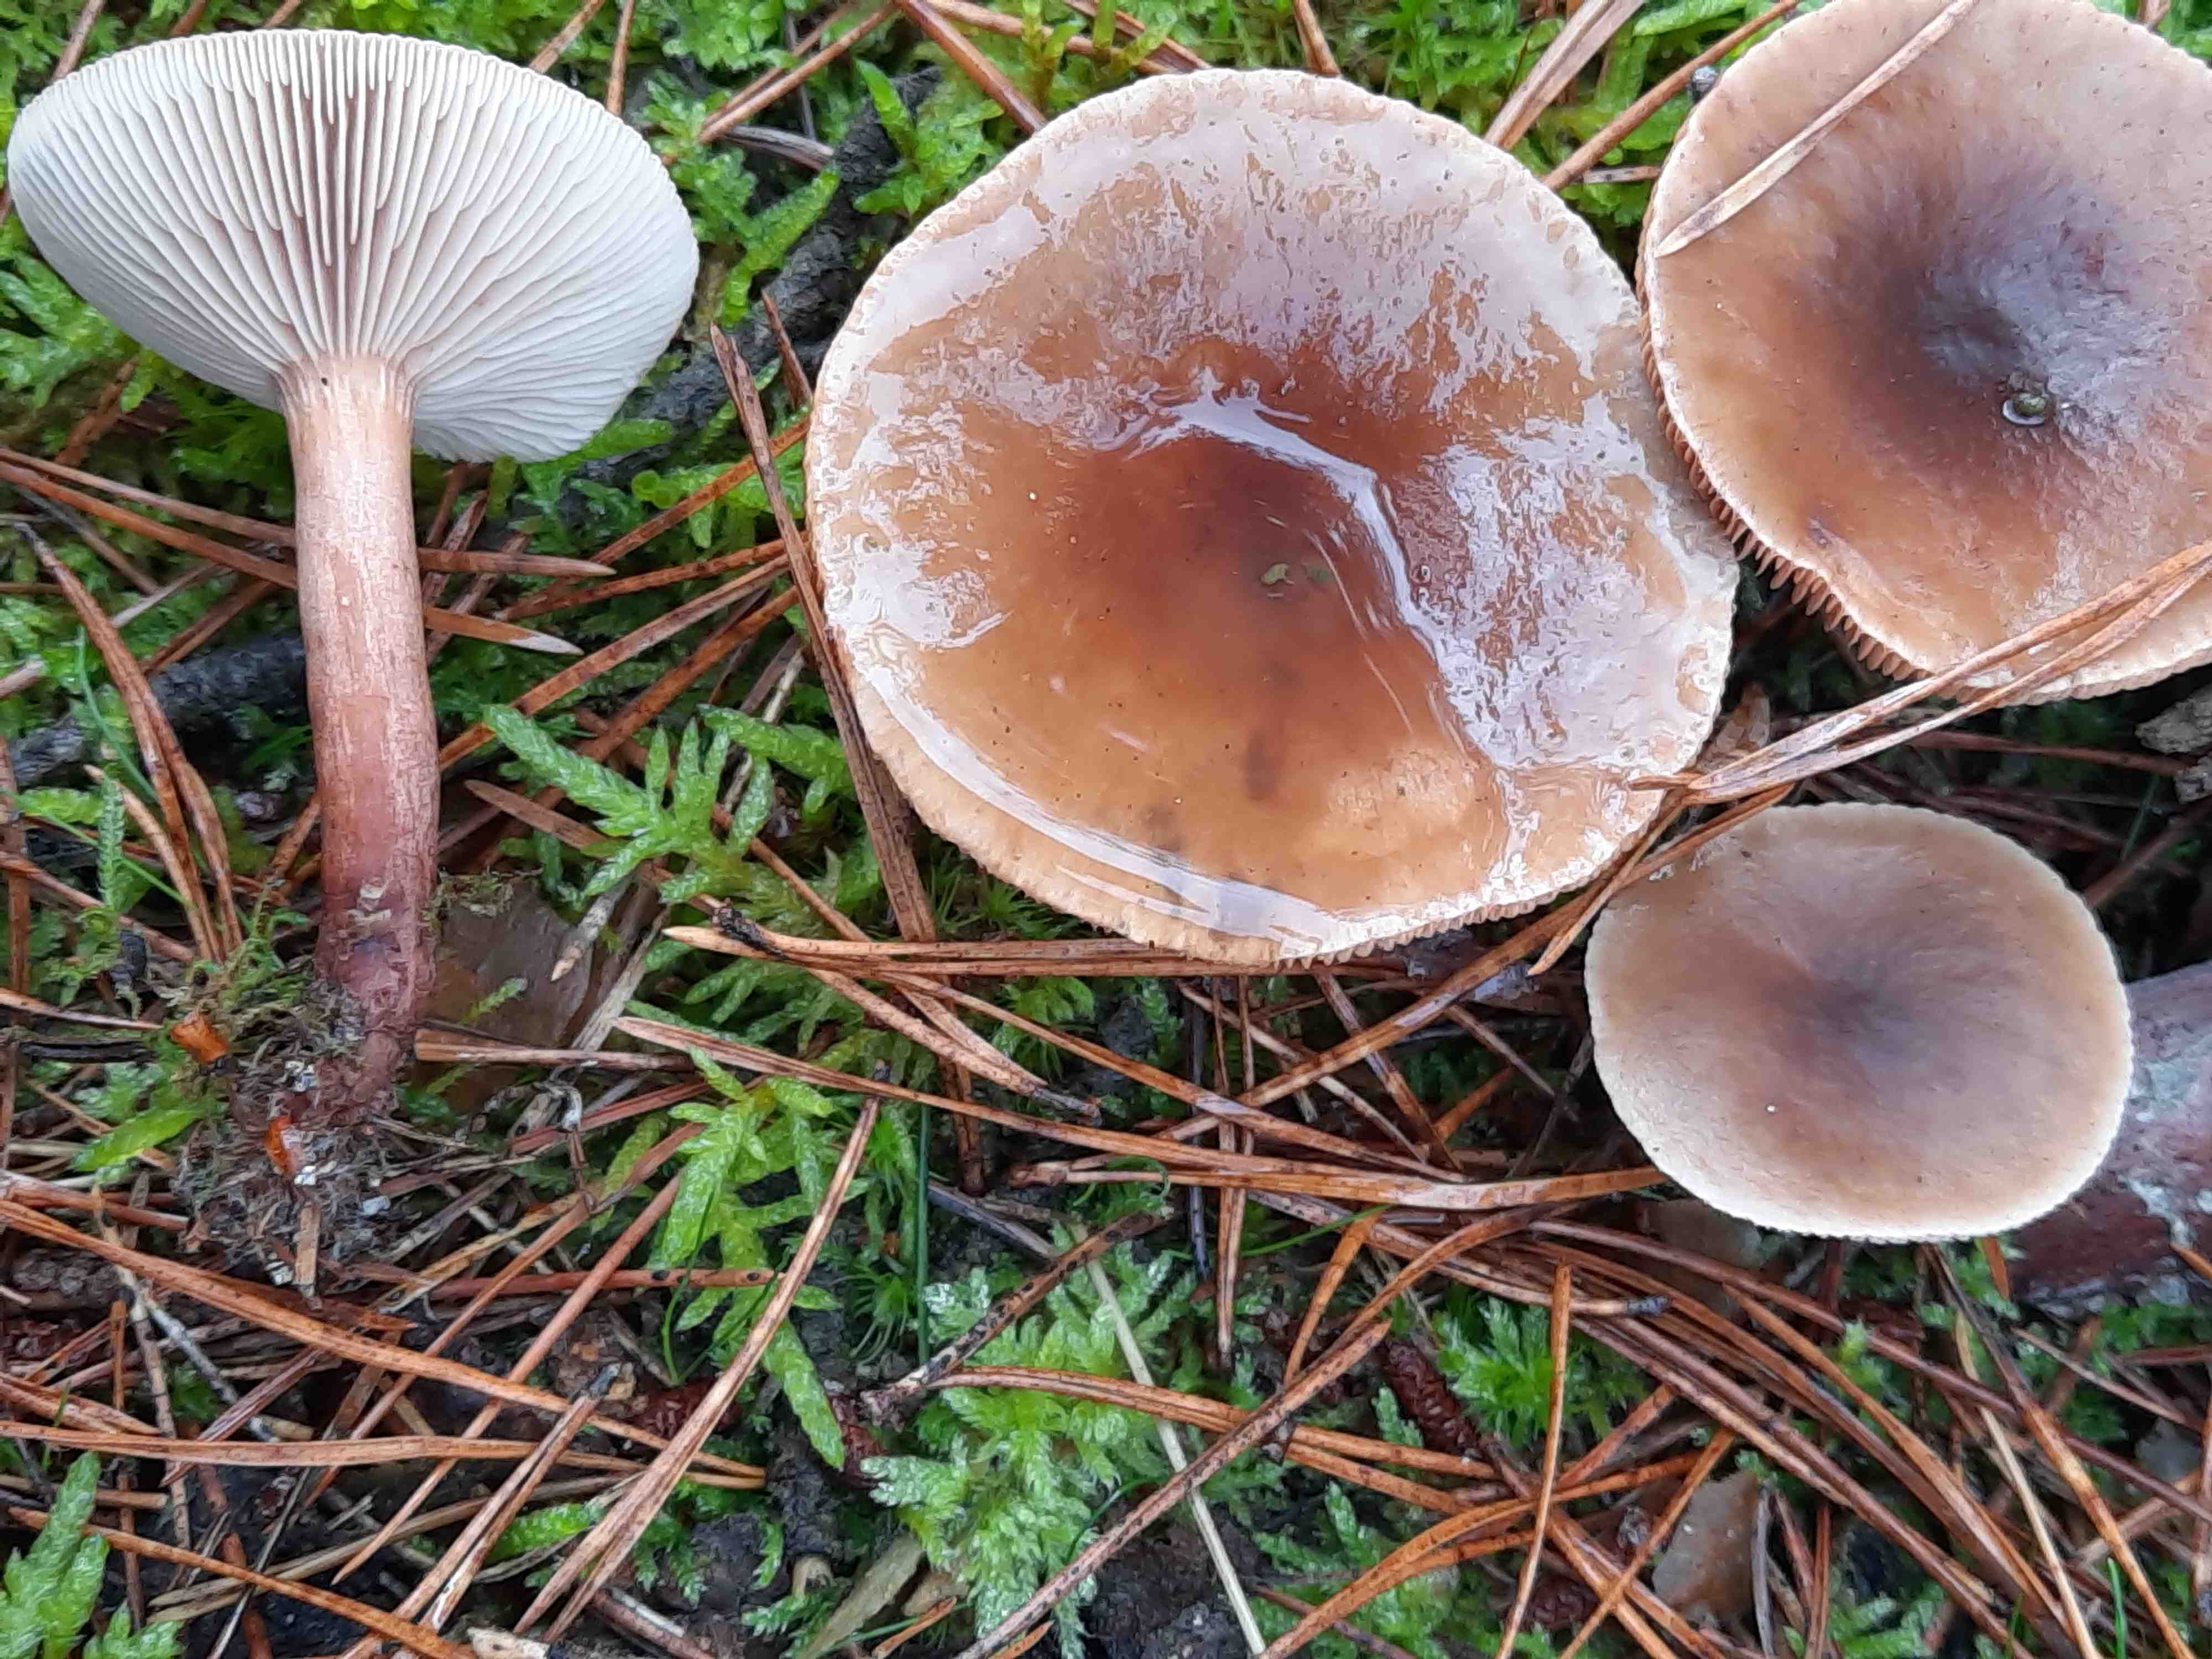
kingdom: Fungi
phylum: Basidiomycota
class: Agaricomycetes
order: Russulales
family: Russulaceae
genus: Lactarius
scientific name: Lactarius hepaticus
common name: leverbrun mælkehat
